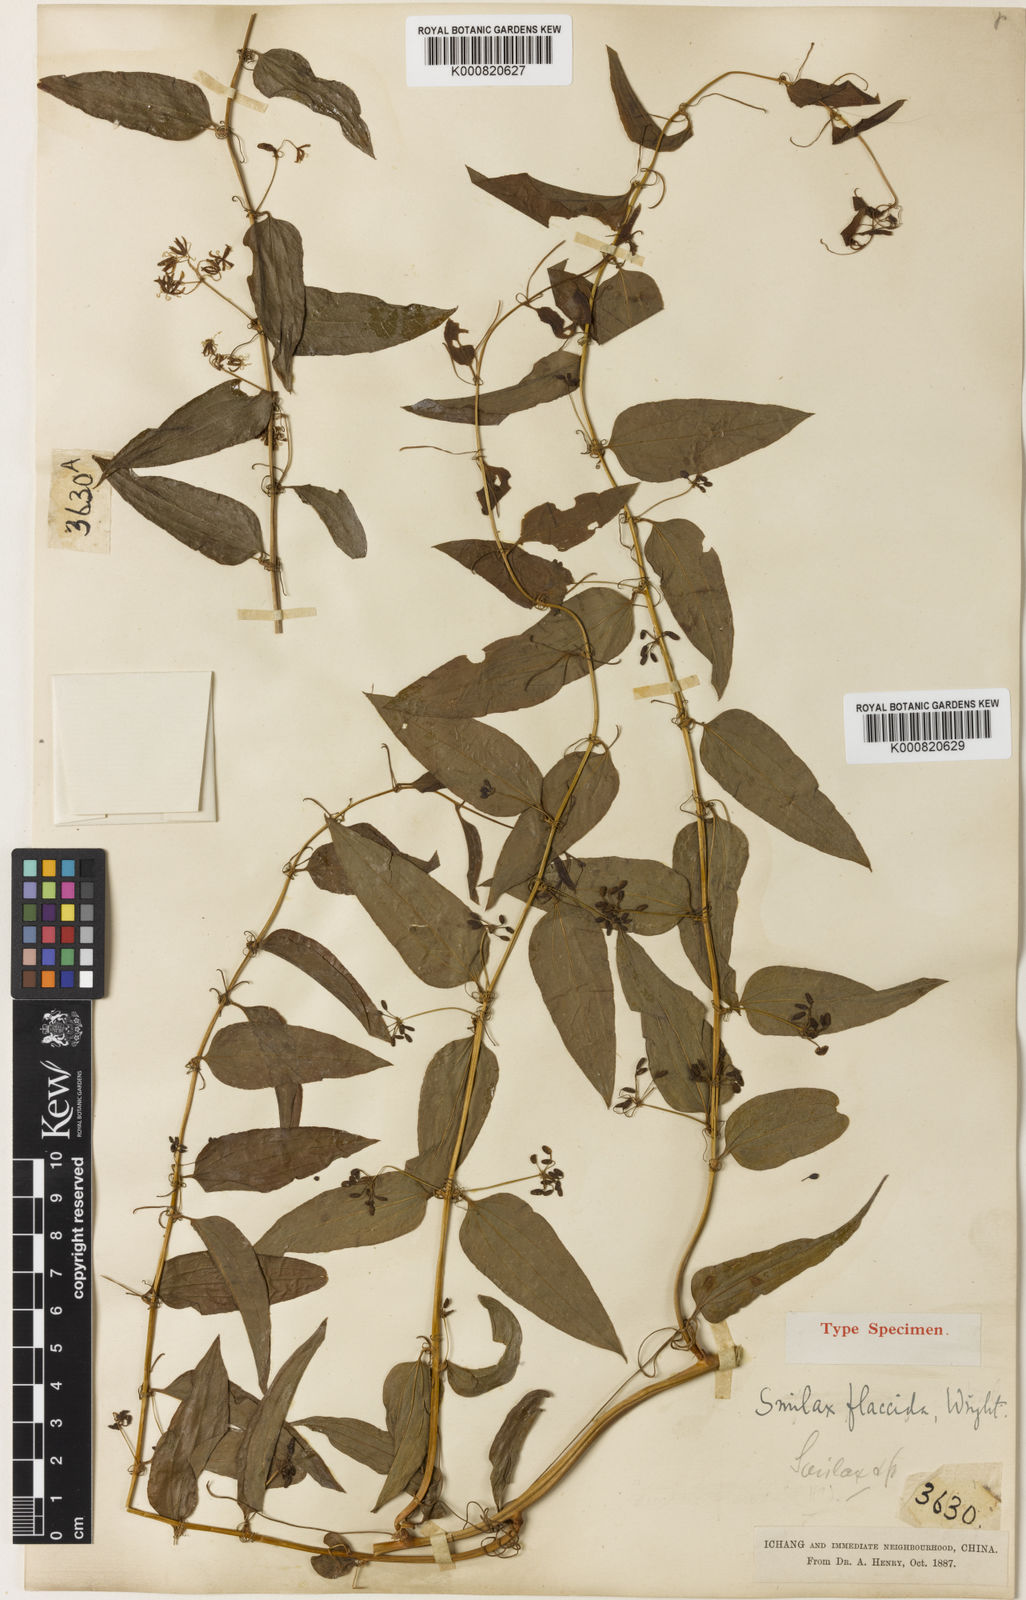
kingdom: Plantae
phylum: Tracheophyta
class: Liliopsida
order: Liliales
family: Smilacaceae
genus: Smilax
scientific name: Smilax riparia
